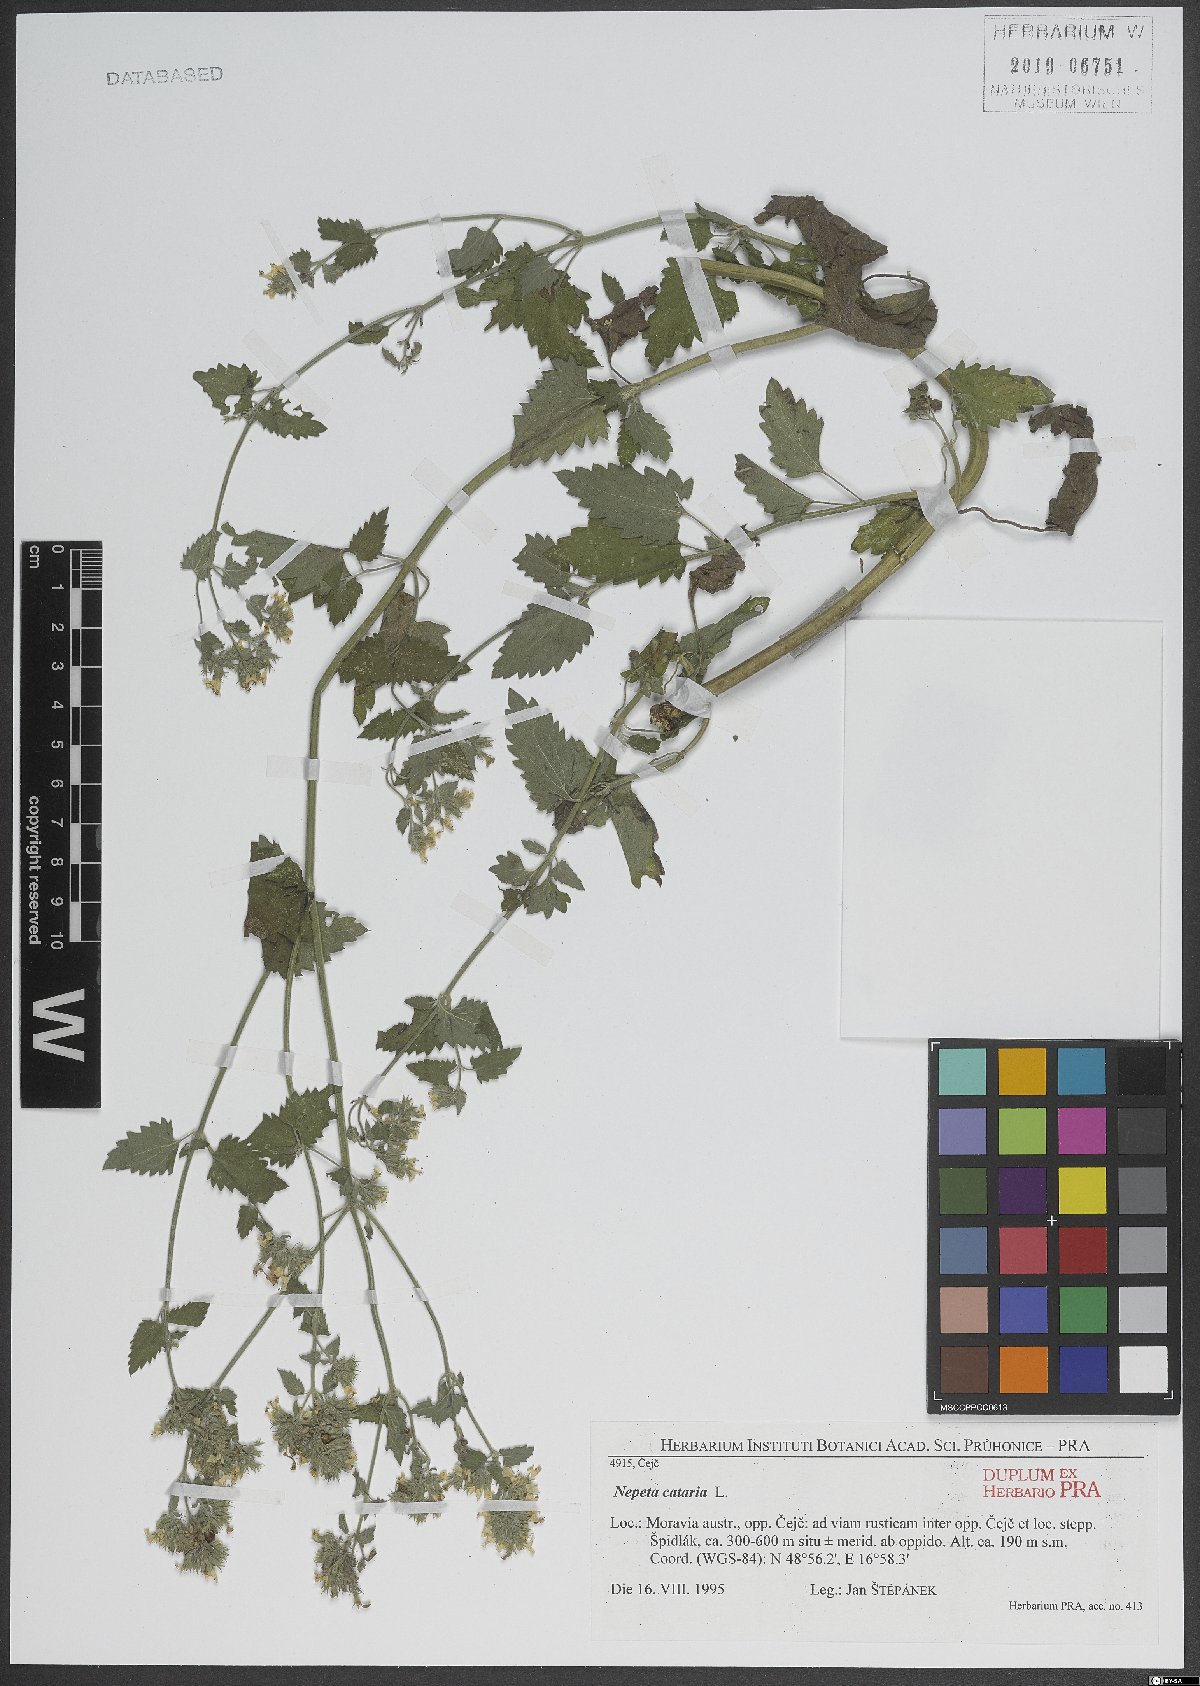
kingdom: Plantae
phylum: Tracheophyta
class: Magnoliopsida
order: Lamiales
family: Lamiaceae
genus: Nepeta
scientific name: Nepeta cataria
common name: Catnip
